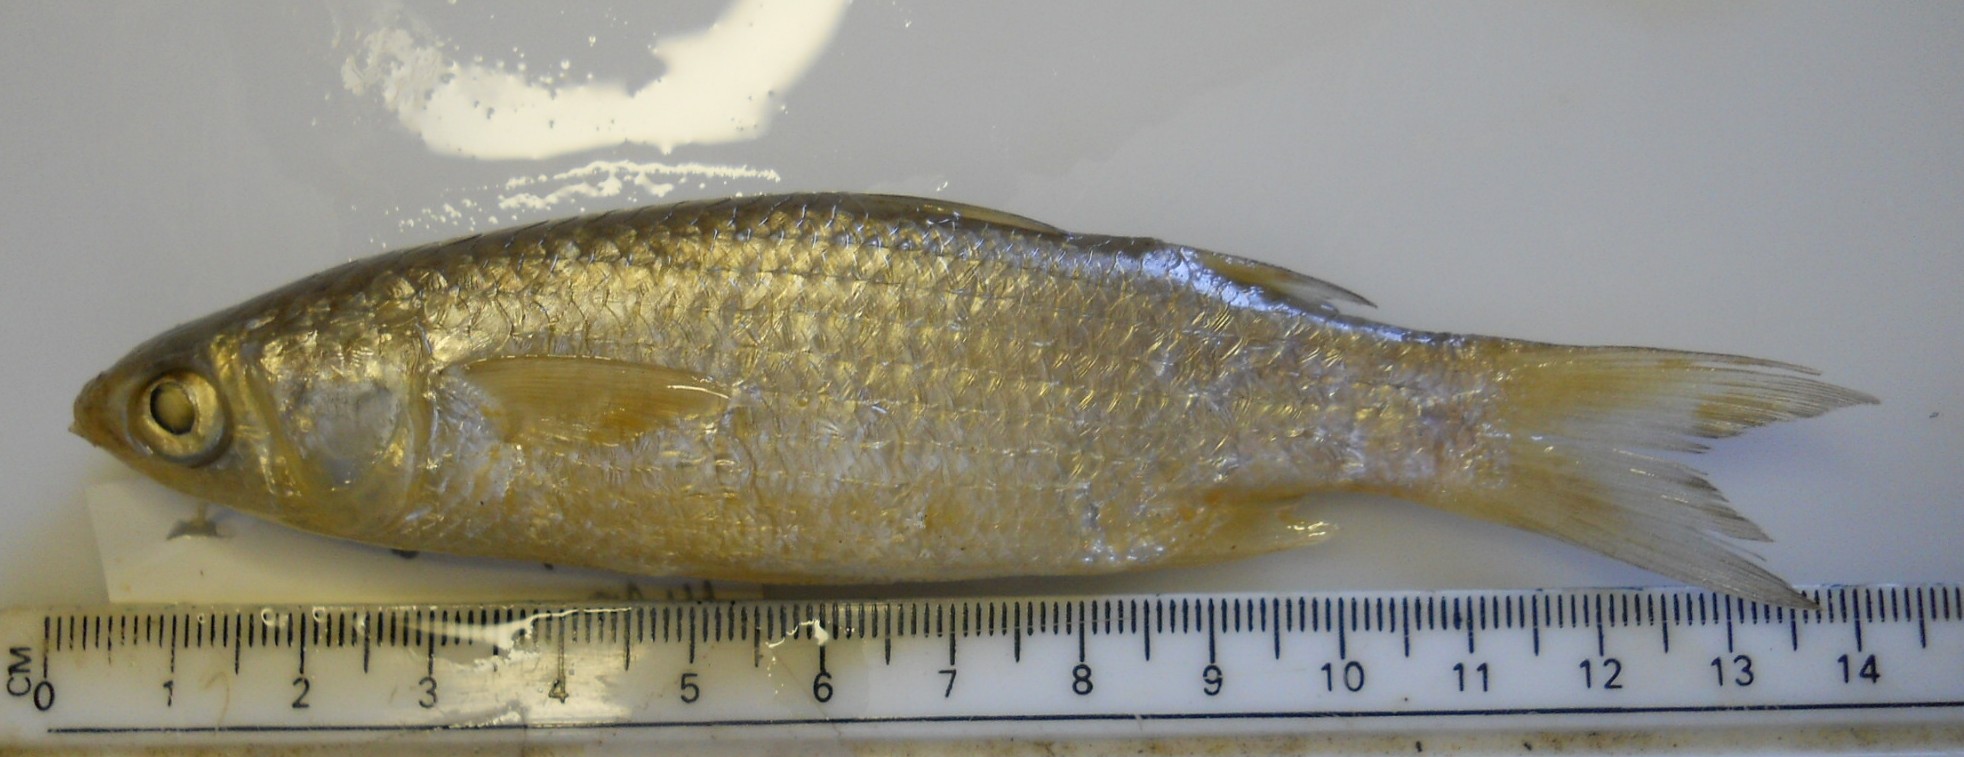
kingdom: Animalia
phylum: Chordata
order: Mugiliformes
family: Mugilidae
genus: Planiliza
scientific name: Planiliza macrolepis
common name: Largescale mullet
